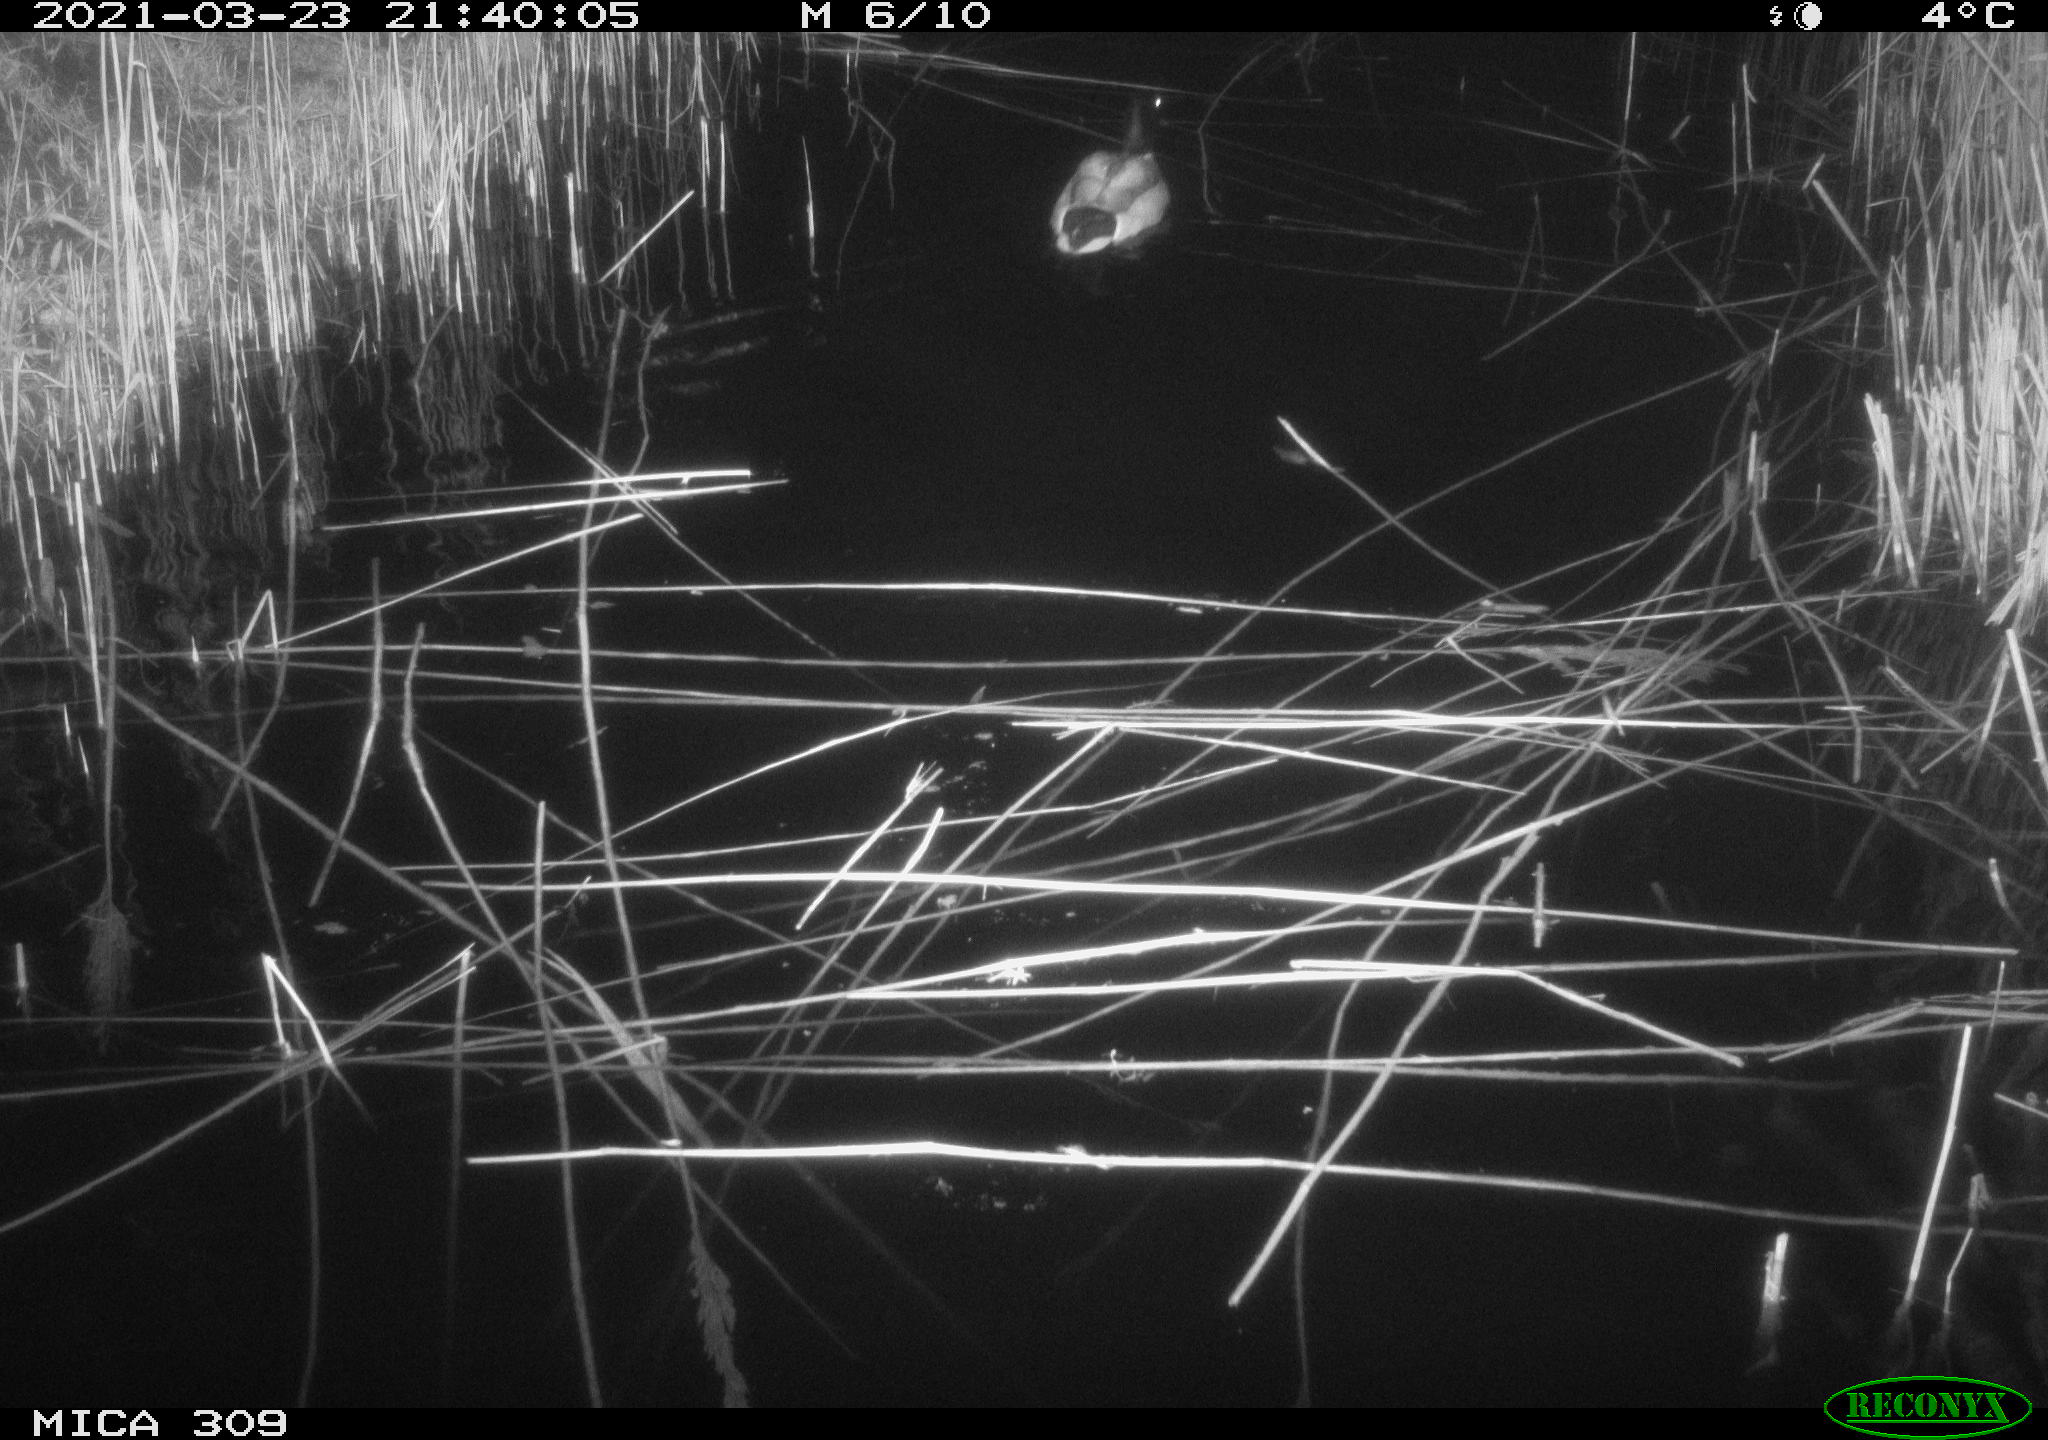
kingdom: Animalia
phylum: Chordata
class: Aves
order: Anseriformes
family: Anatidae
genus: Anas
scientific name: Anas platyrhynchos
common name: Mallard
